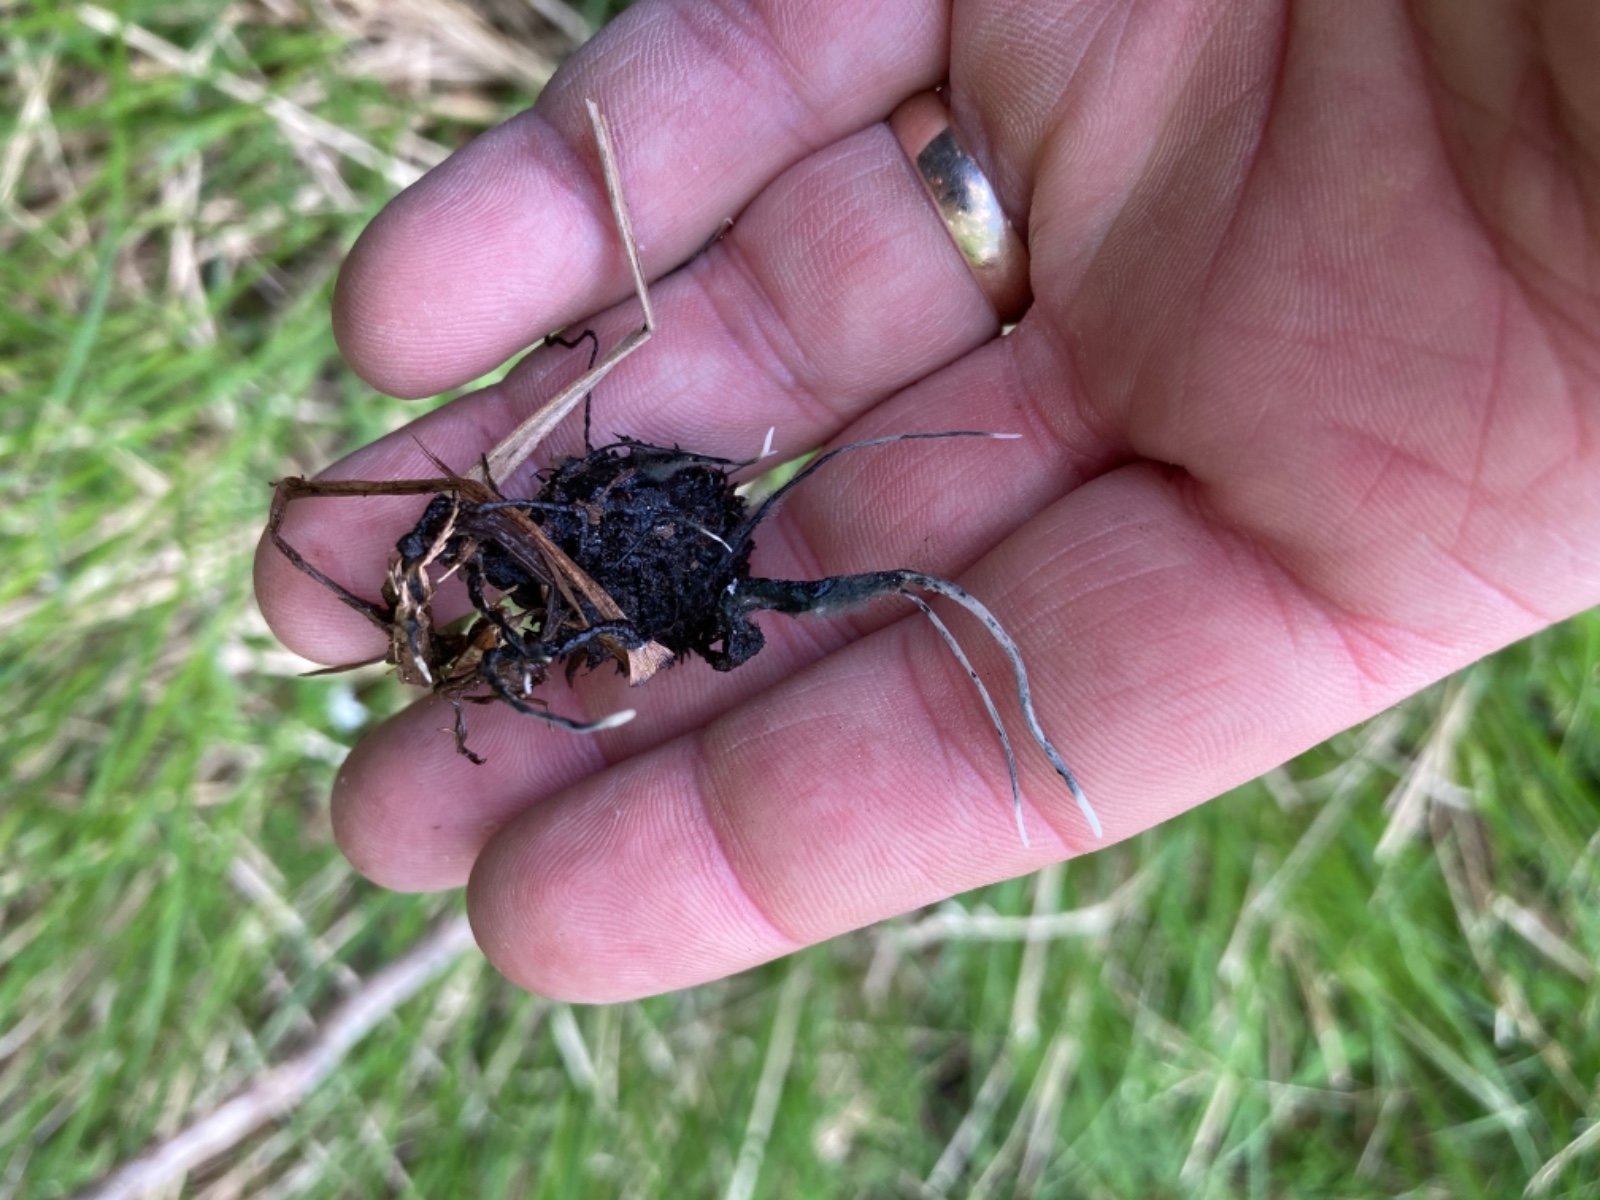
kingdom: Fungi
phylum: Ascomycota
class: Sordariomycetes
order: Xylariales
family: Xylariaceae
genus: Xylaria
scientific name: Xylaria carpophila
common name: bogskål-stødsvamp
